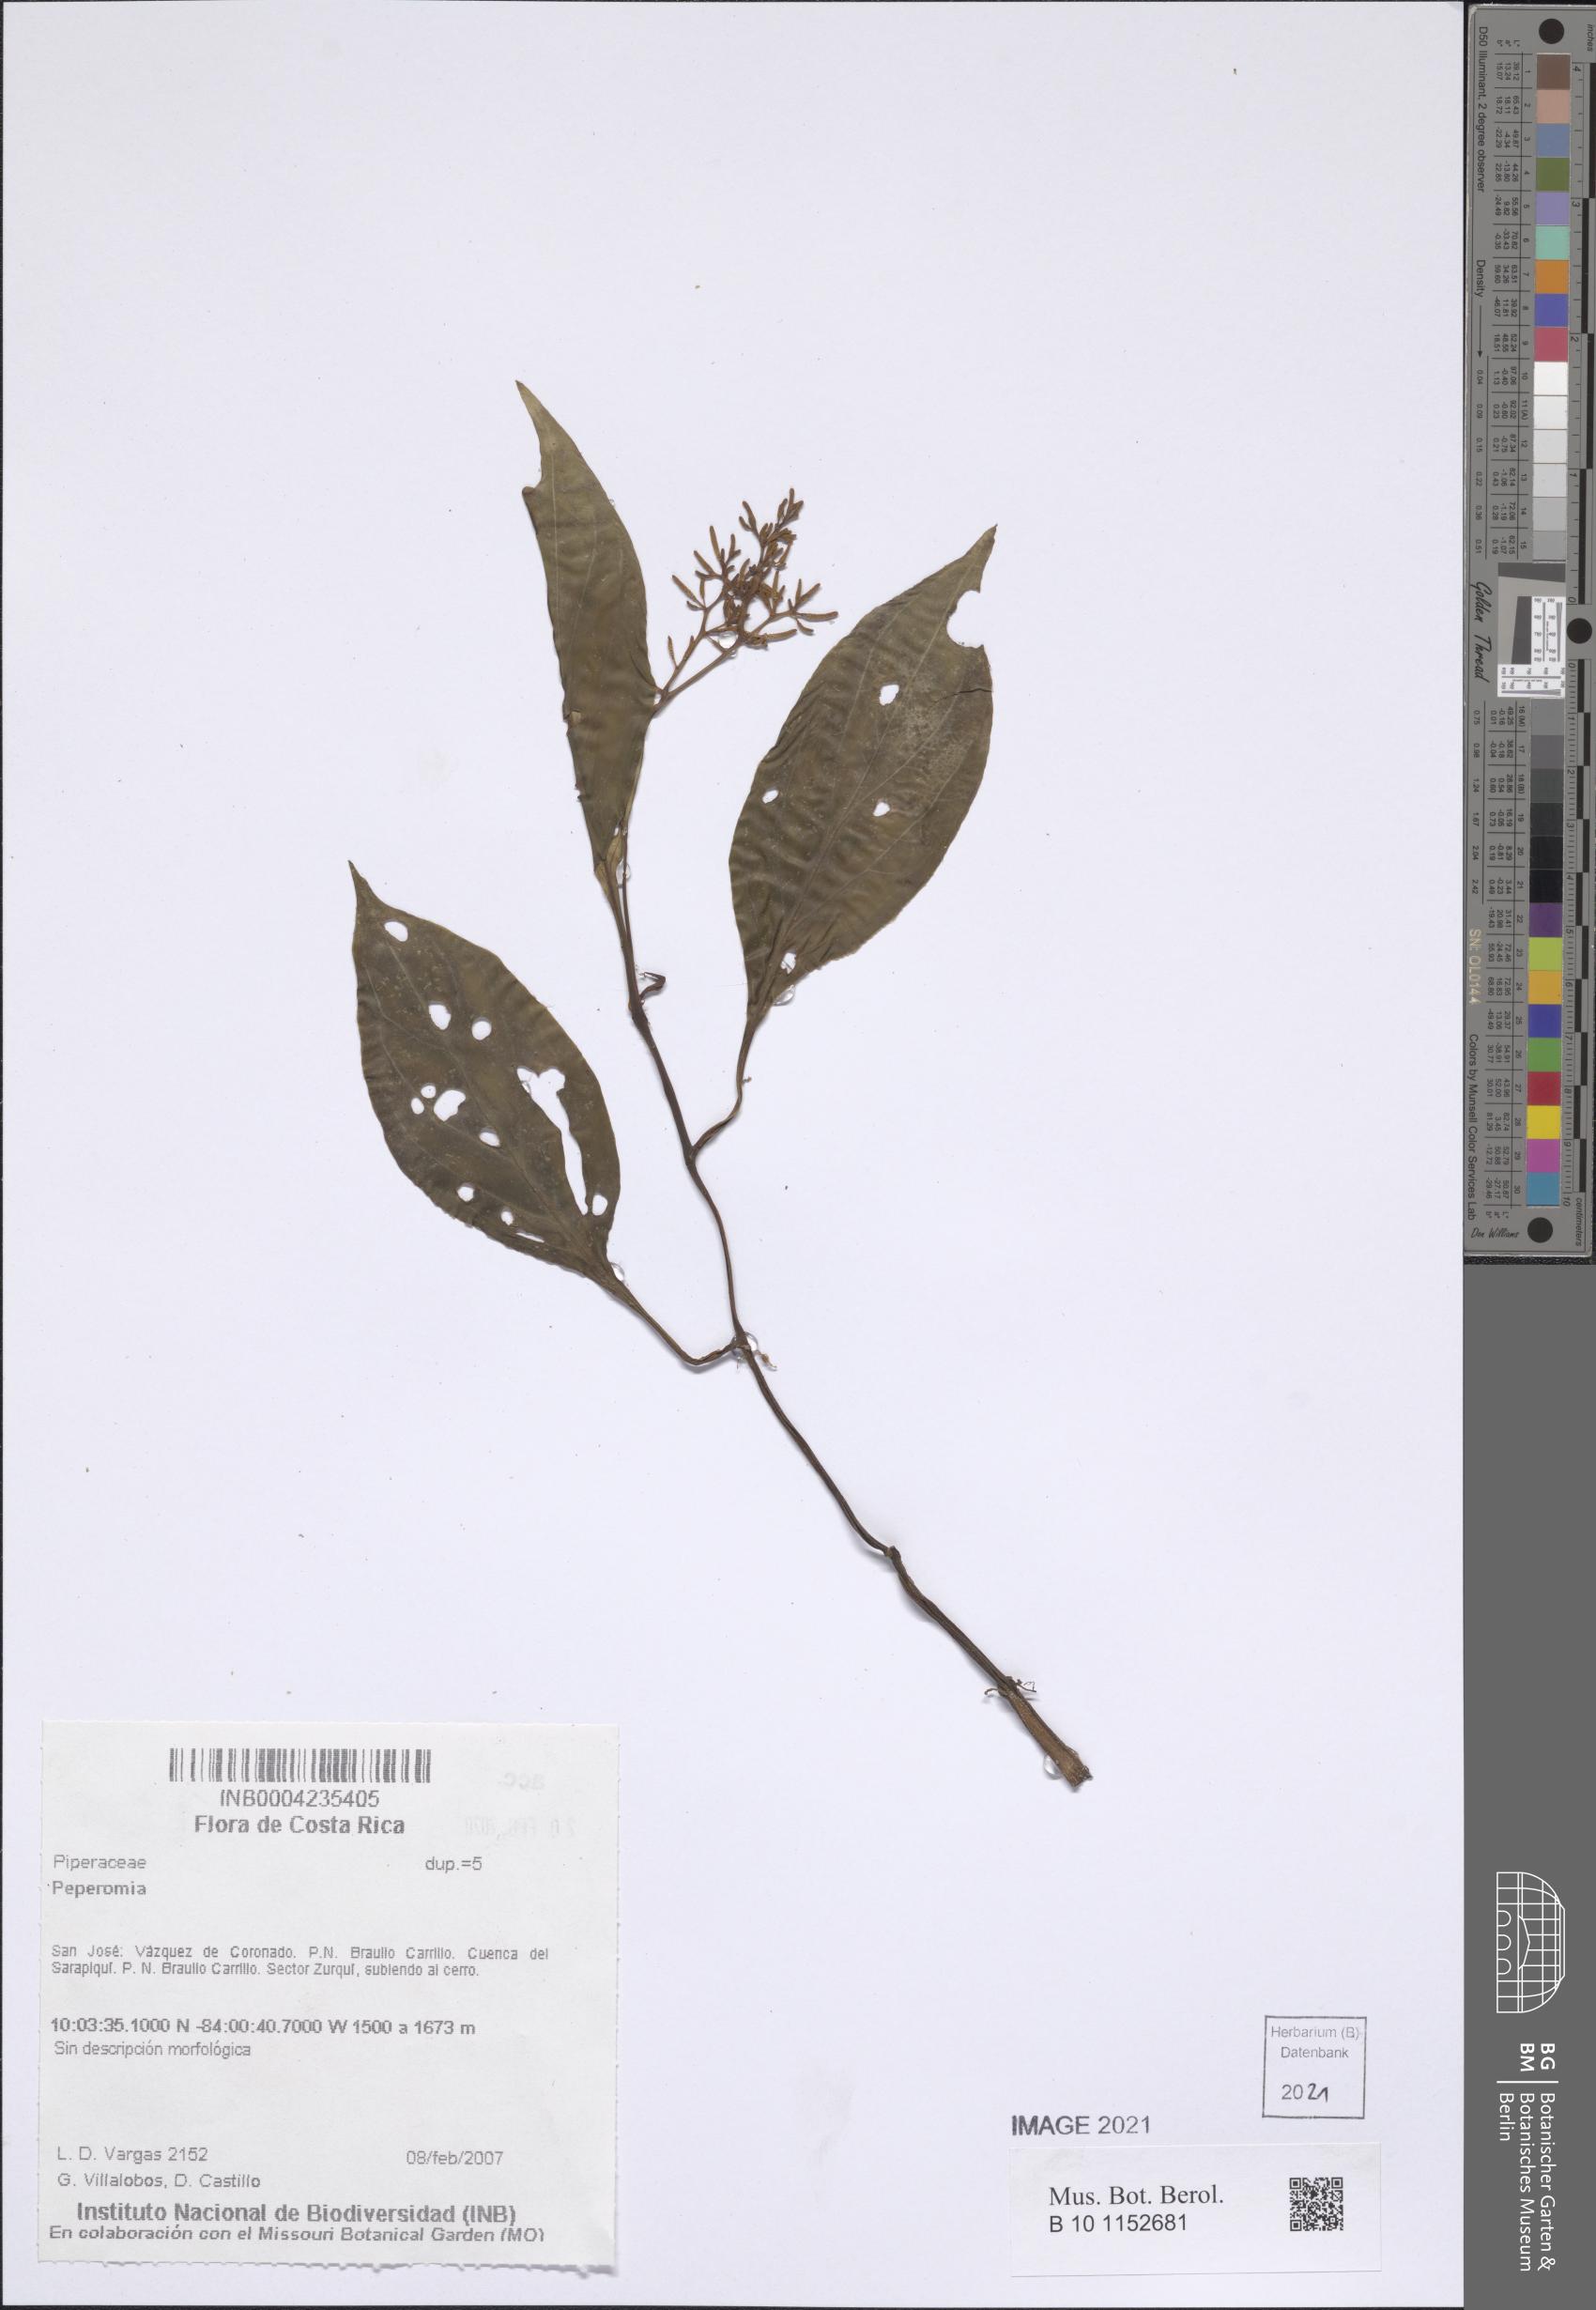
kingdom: Plantae
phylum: Tracheophyta
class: Magnoliopsida
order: Piperales
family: Piperaceae
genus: Peperomia
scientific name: Peperomia
